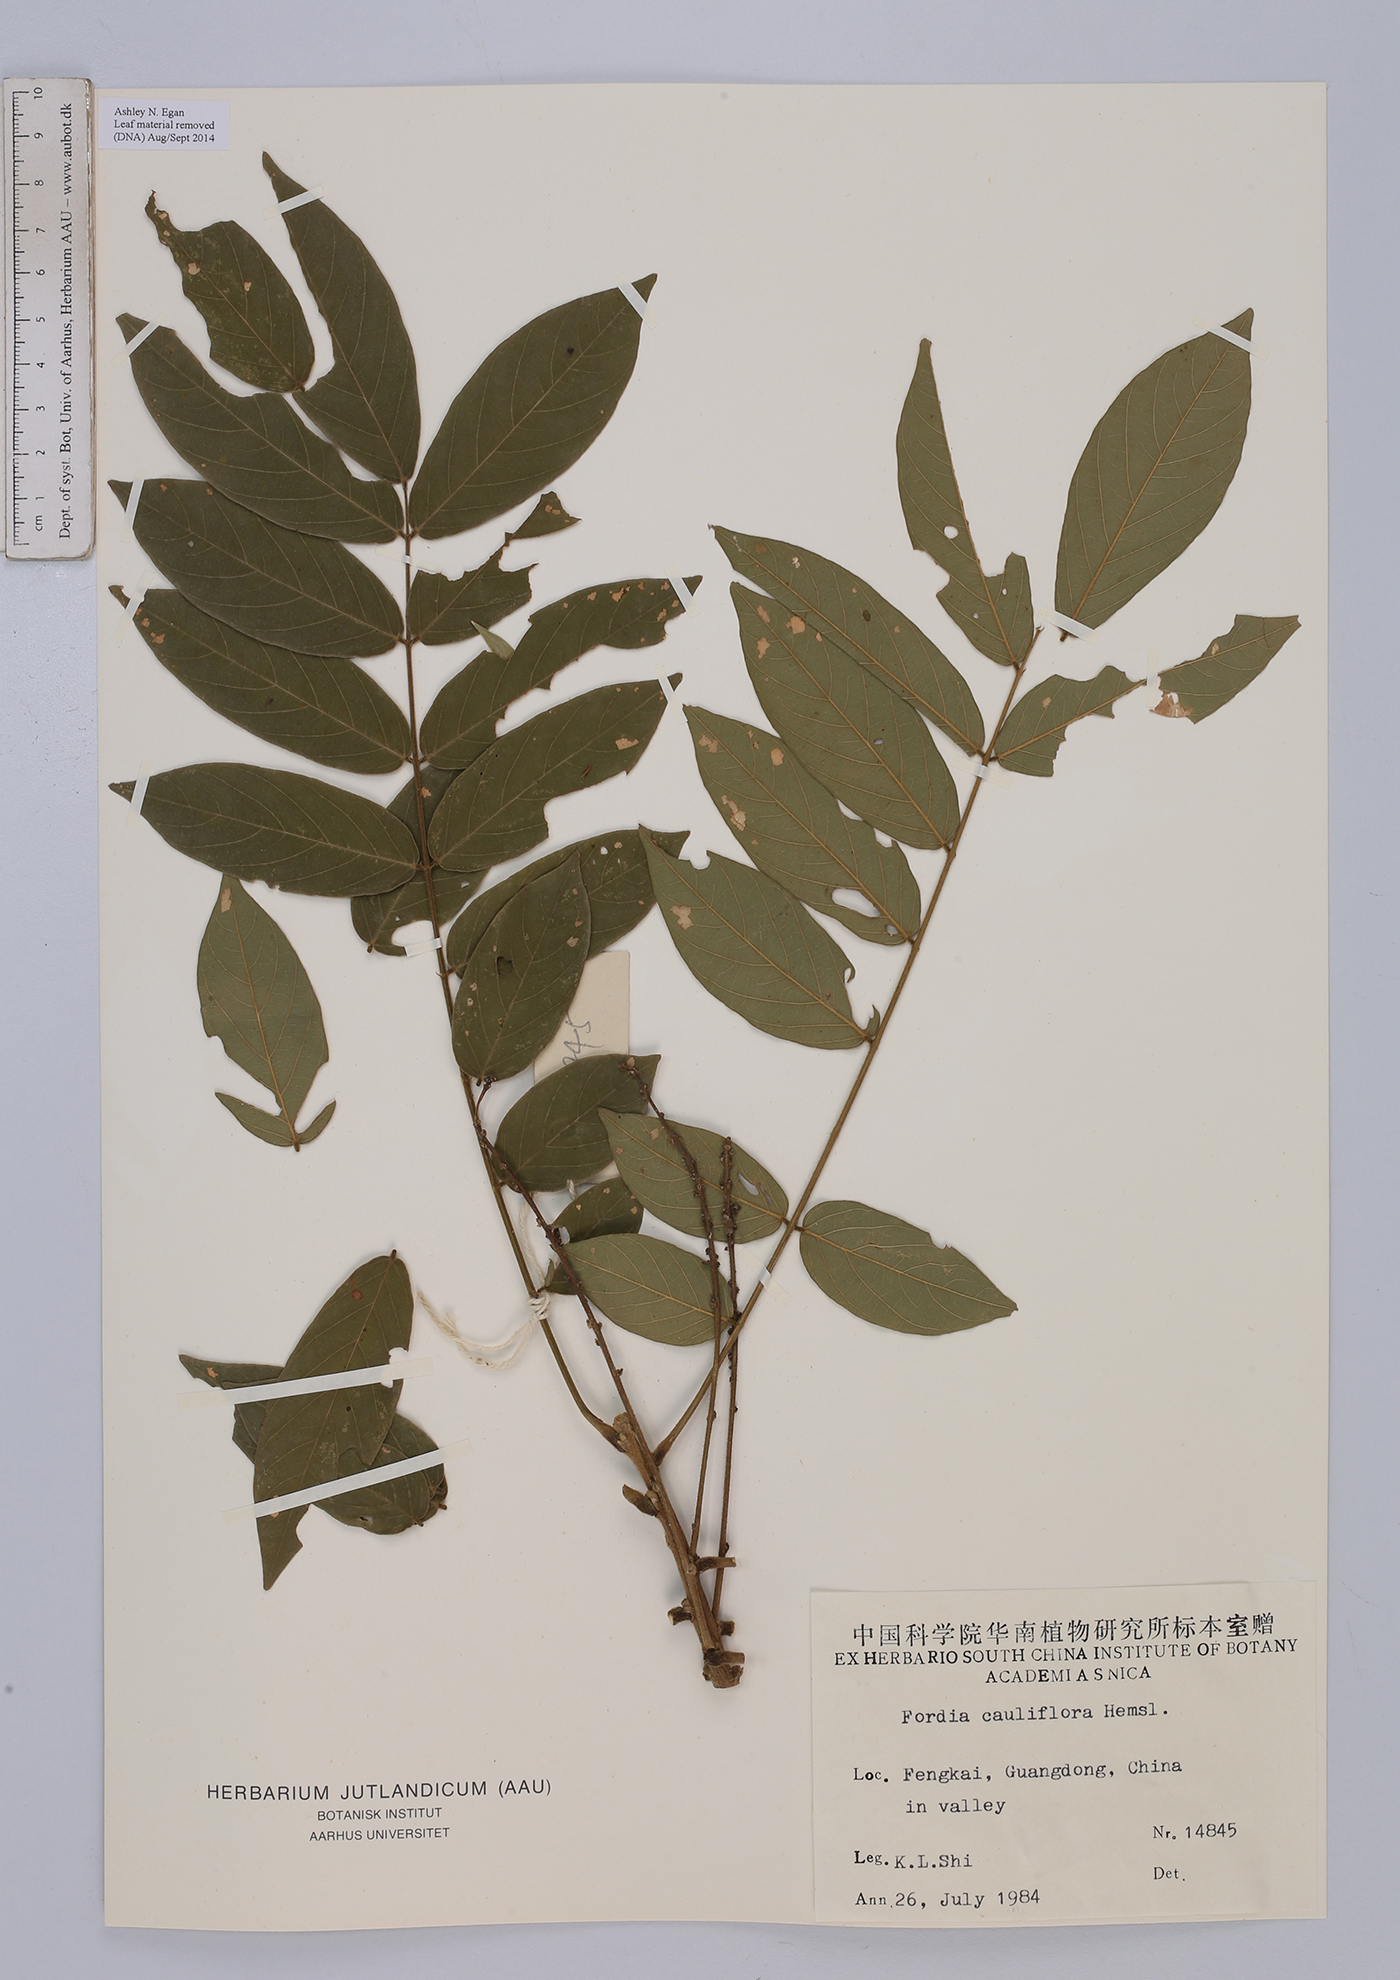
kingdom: Plantae
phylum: Tracheophyta
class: Magnoliopsida
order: Fabales
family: Fabaceae
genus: Fordia
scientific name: Fordia cauliflora
